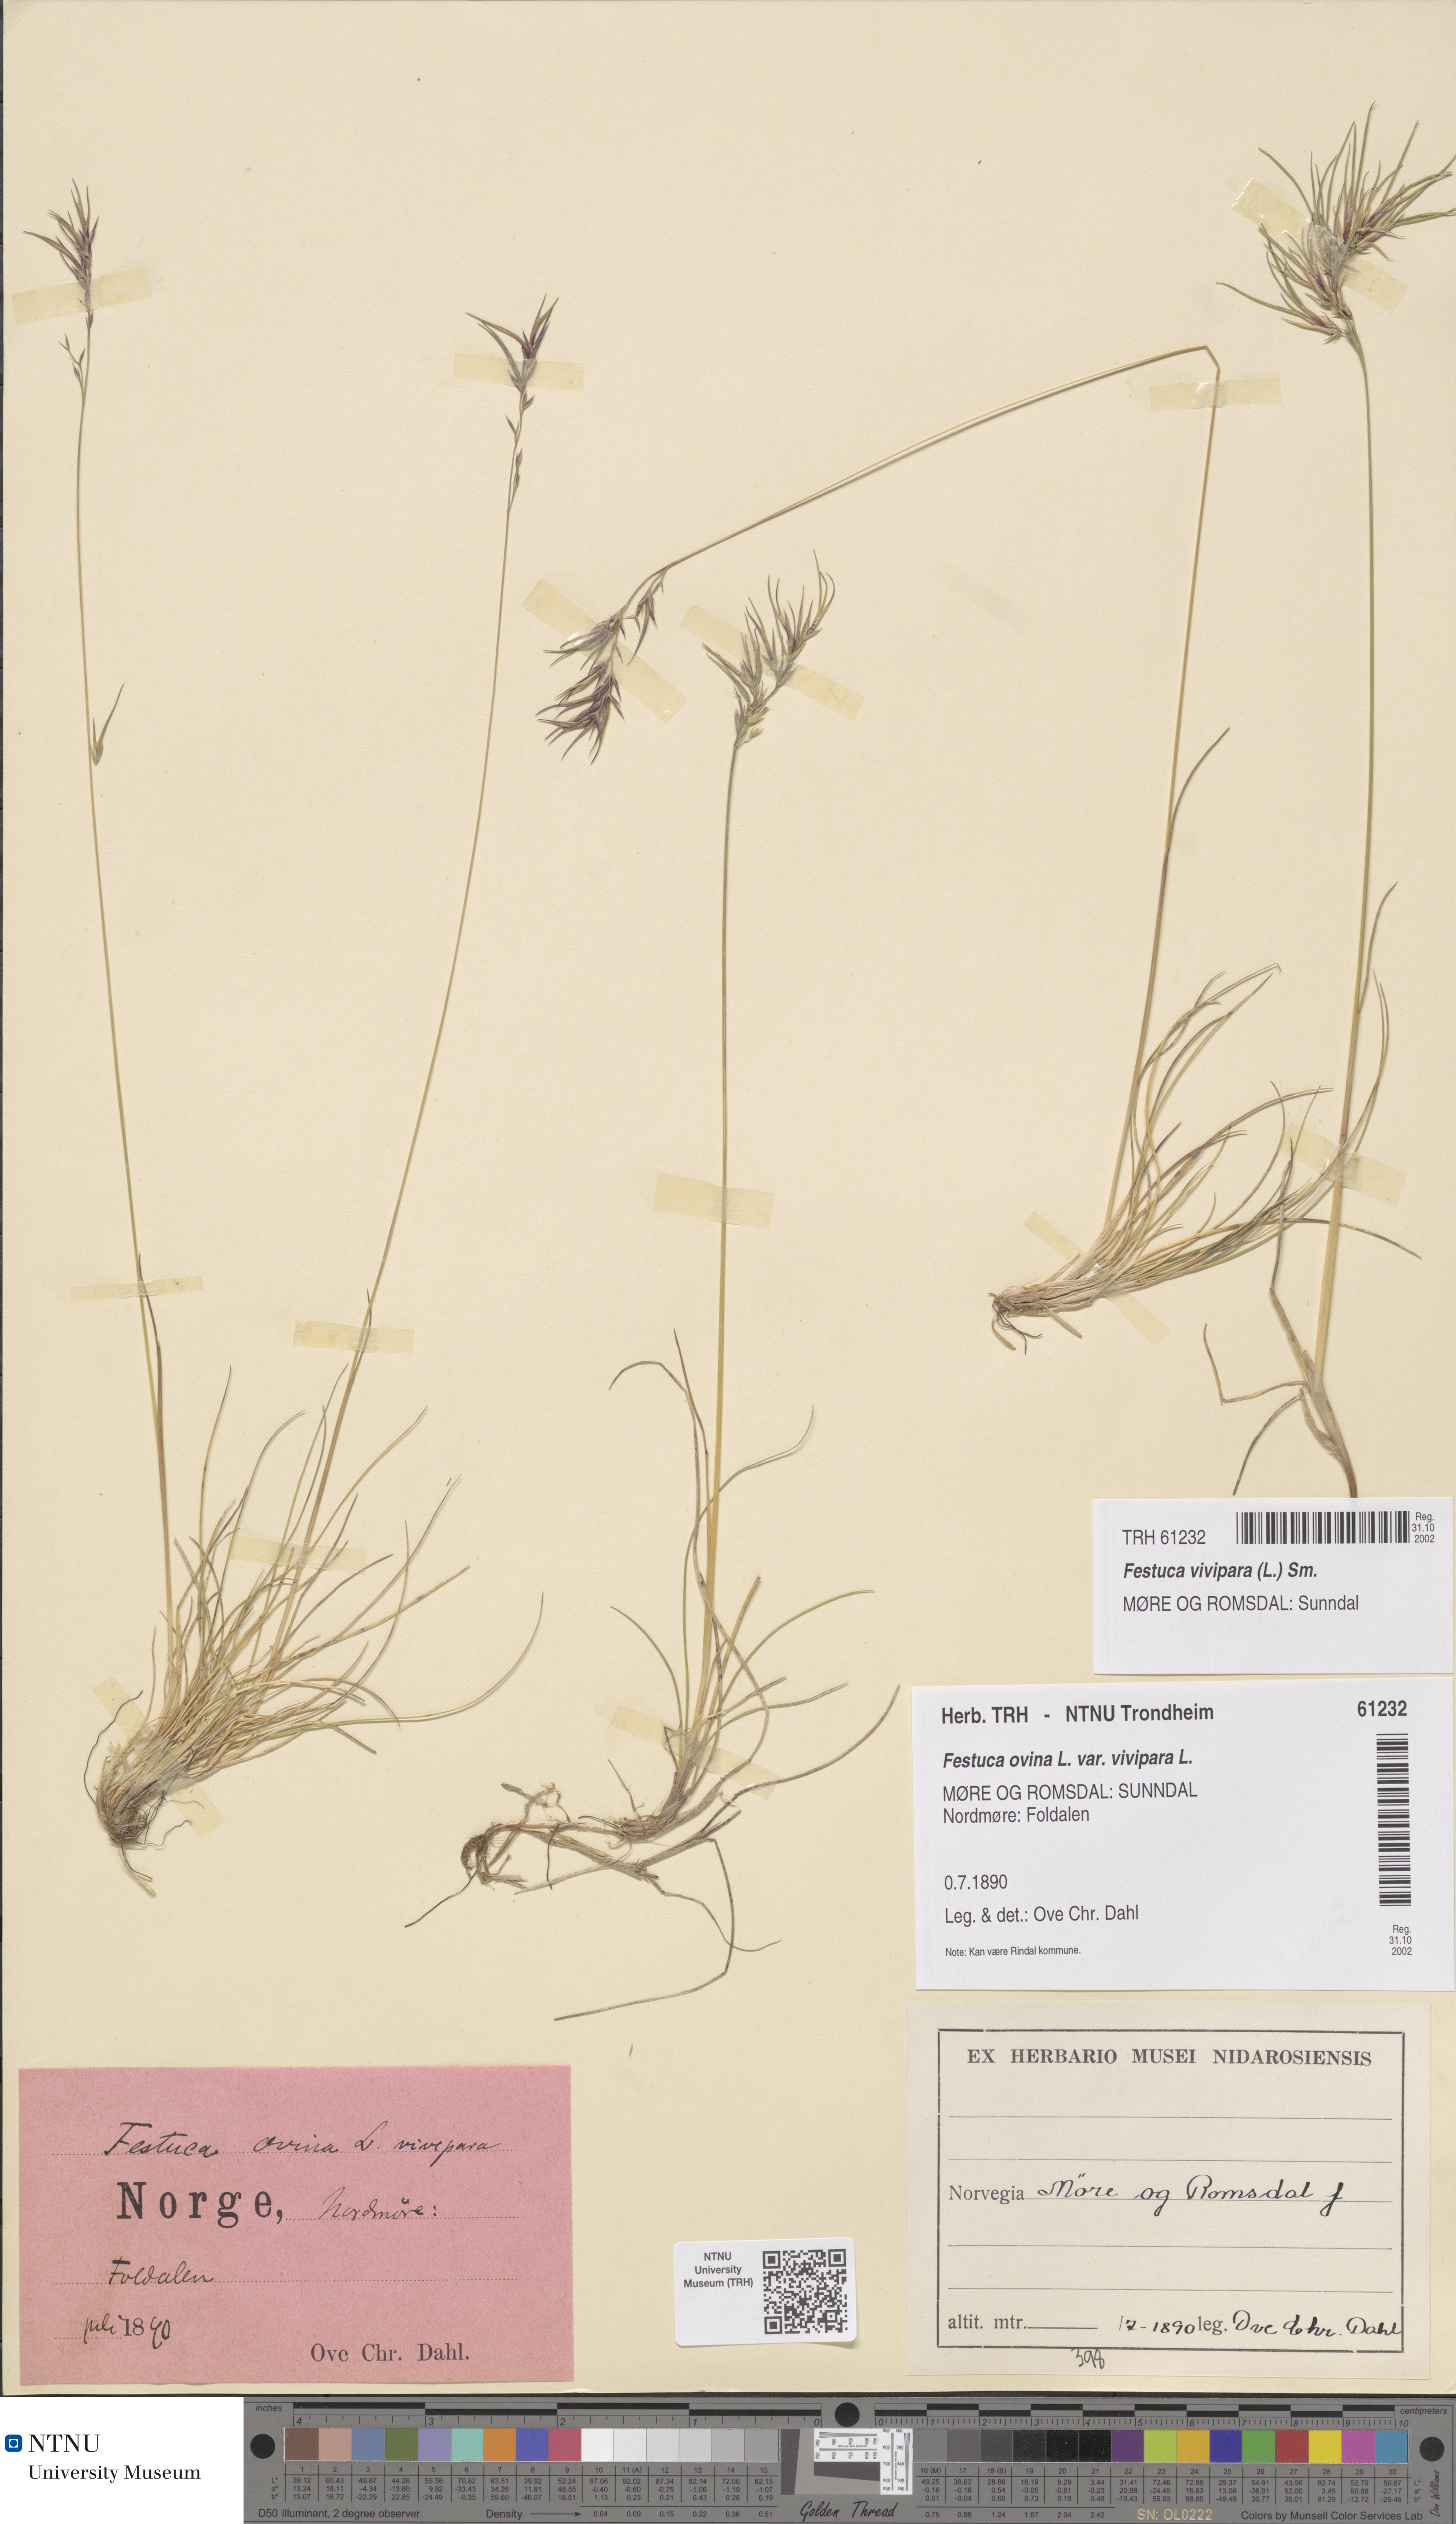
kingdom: Plantae
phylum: Tracheophyta
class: Liliopsida
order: Poales
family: Poaceae
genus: Festuca
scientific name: Festuca vivipara
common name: Viviparous sheep's-fescue
